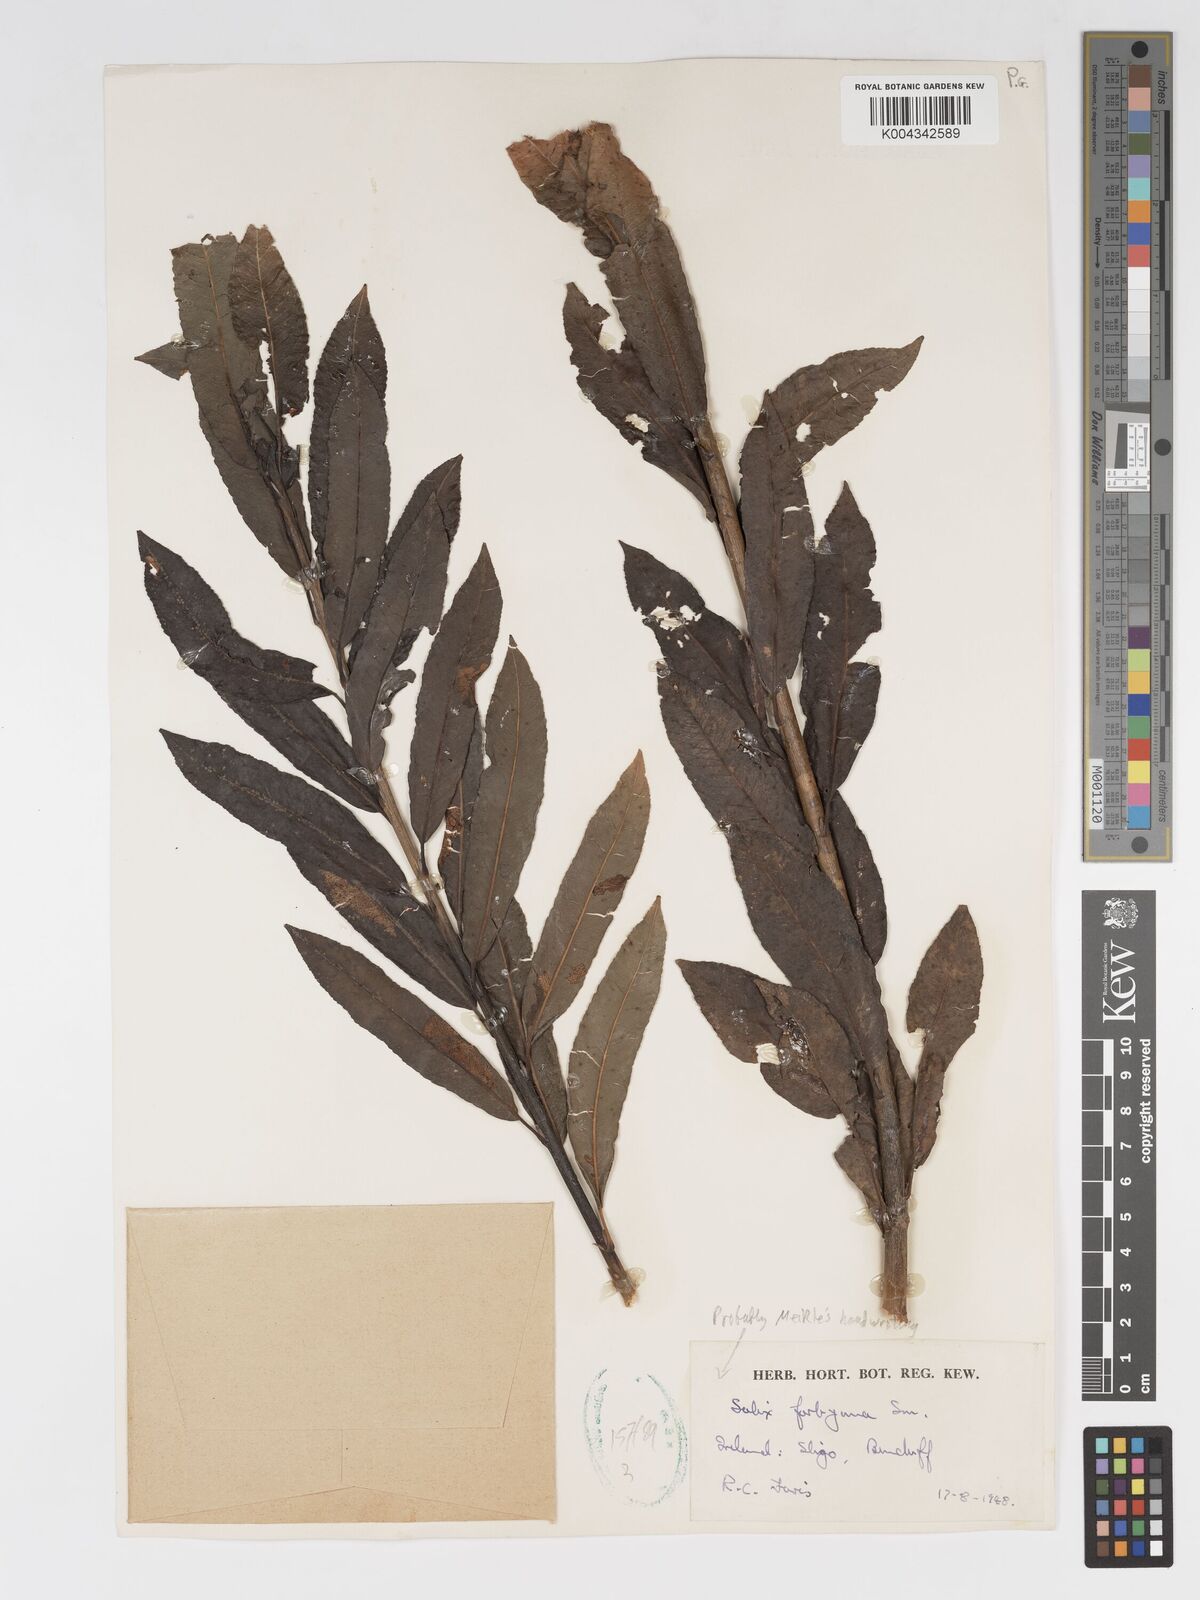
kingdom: Plantae
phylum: Tracheophyta
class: Magnoliopsida
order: Malpighiales
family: Salicaceae
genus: Salix
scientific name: Salix cinerea
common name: Common sallow
